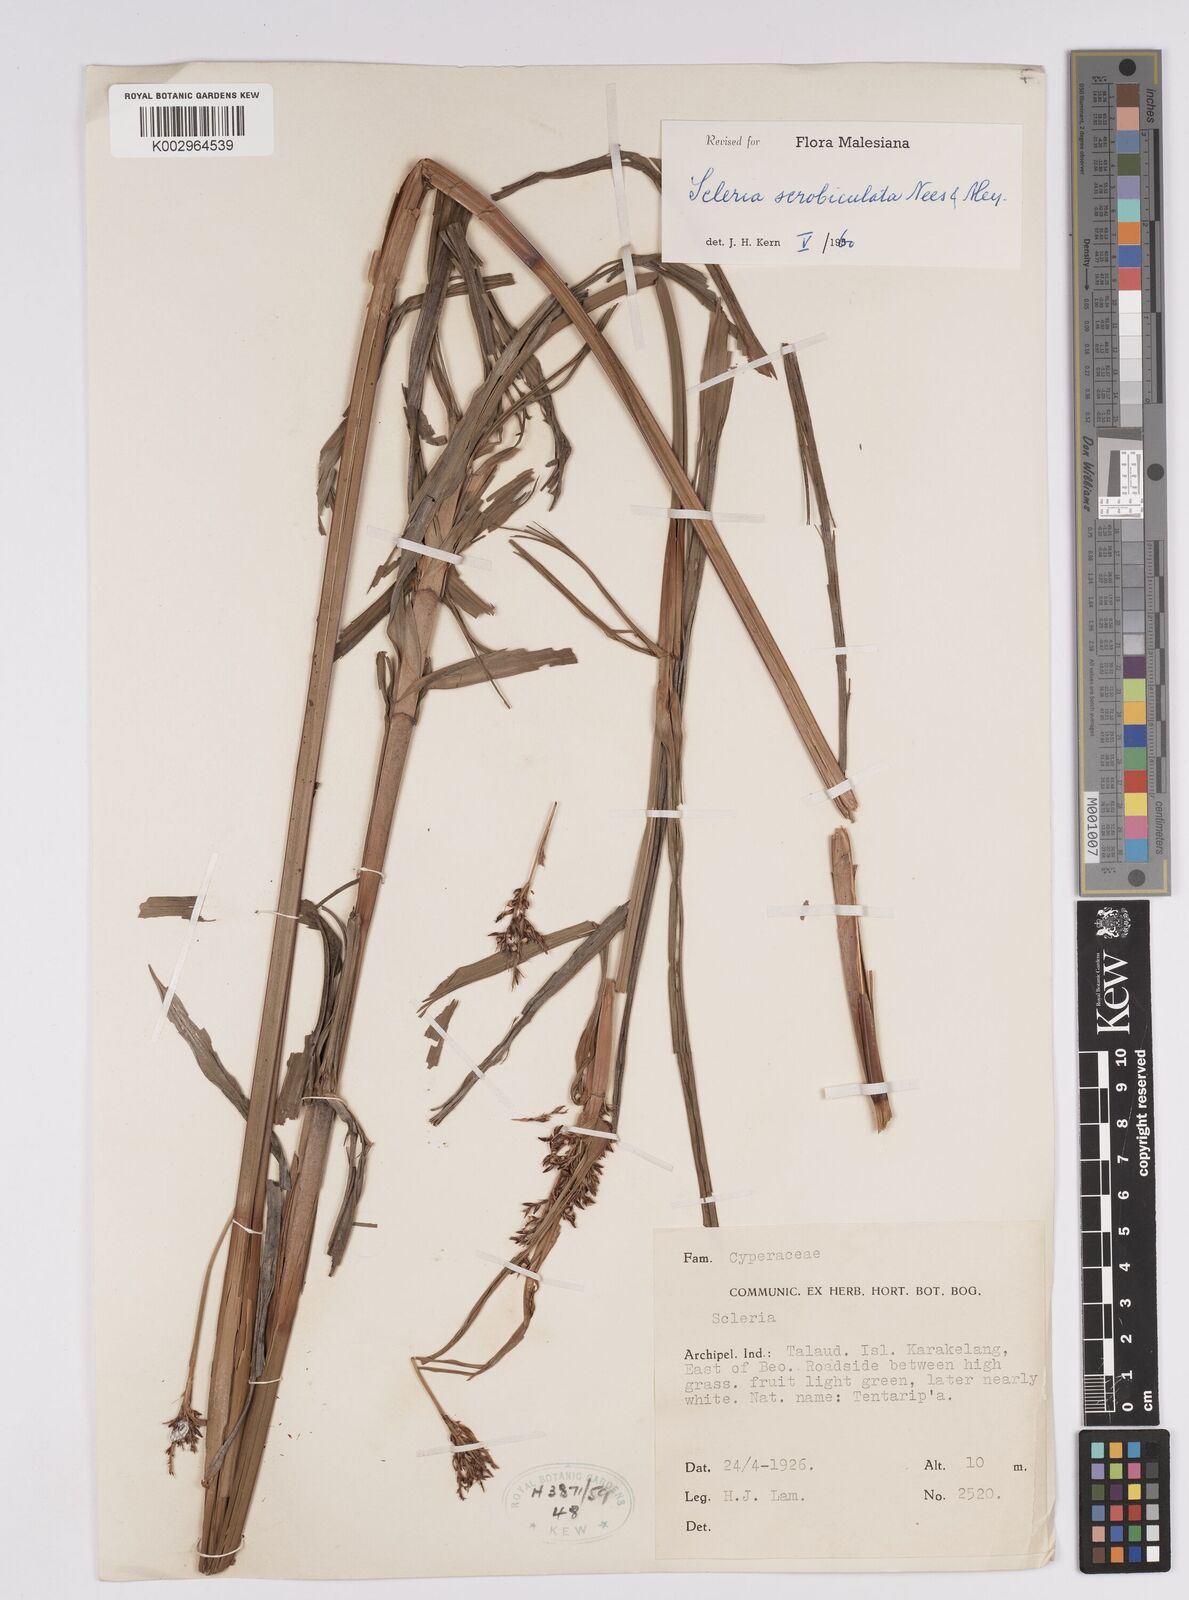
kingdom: Plantae
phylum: Tracheophyta
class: Liliopsida
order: Poales
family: Cyperaceae
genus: Scleria
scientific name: Scleria scrobiculata
